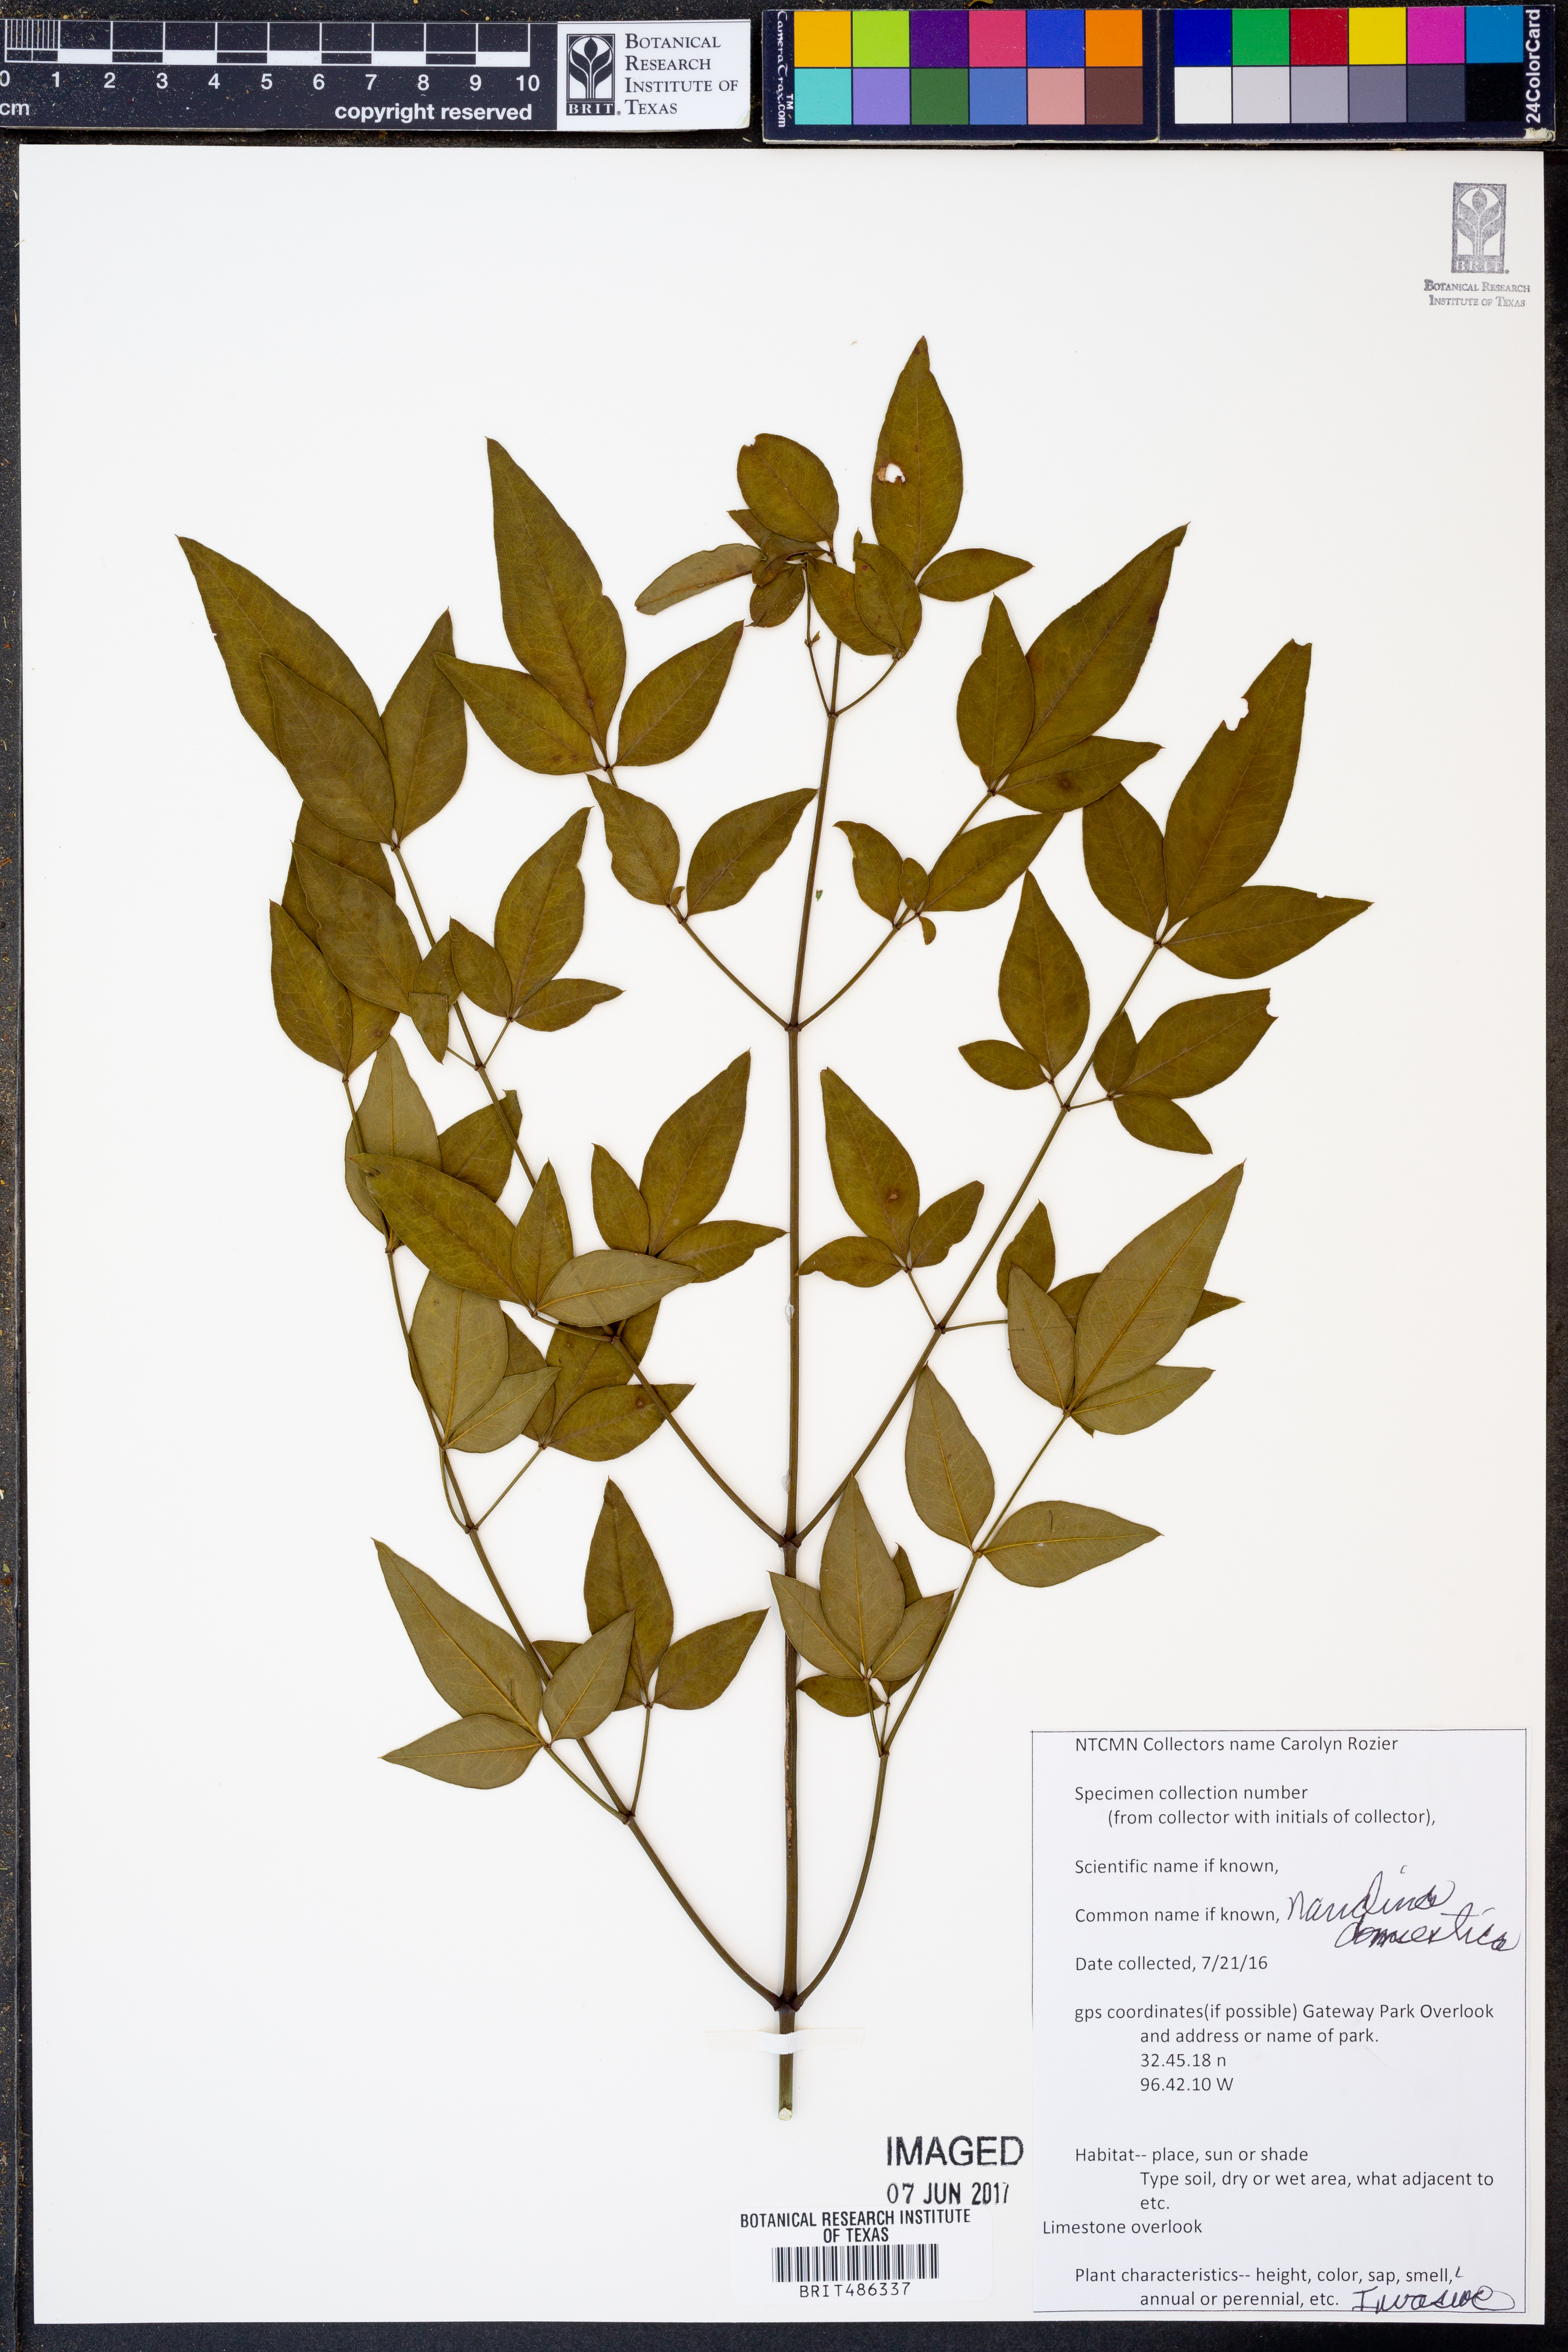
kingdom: Plantae
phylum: Tracheophyta
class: Magnoliopsida
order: Ranunculales
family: Berberidaceae
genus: Nandina
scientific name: Nandina domestica
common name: Sacred bamboo
